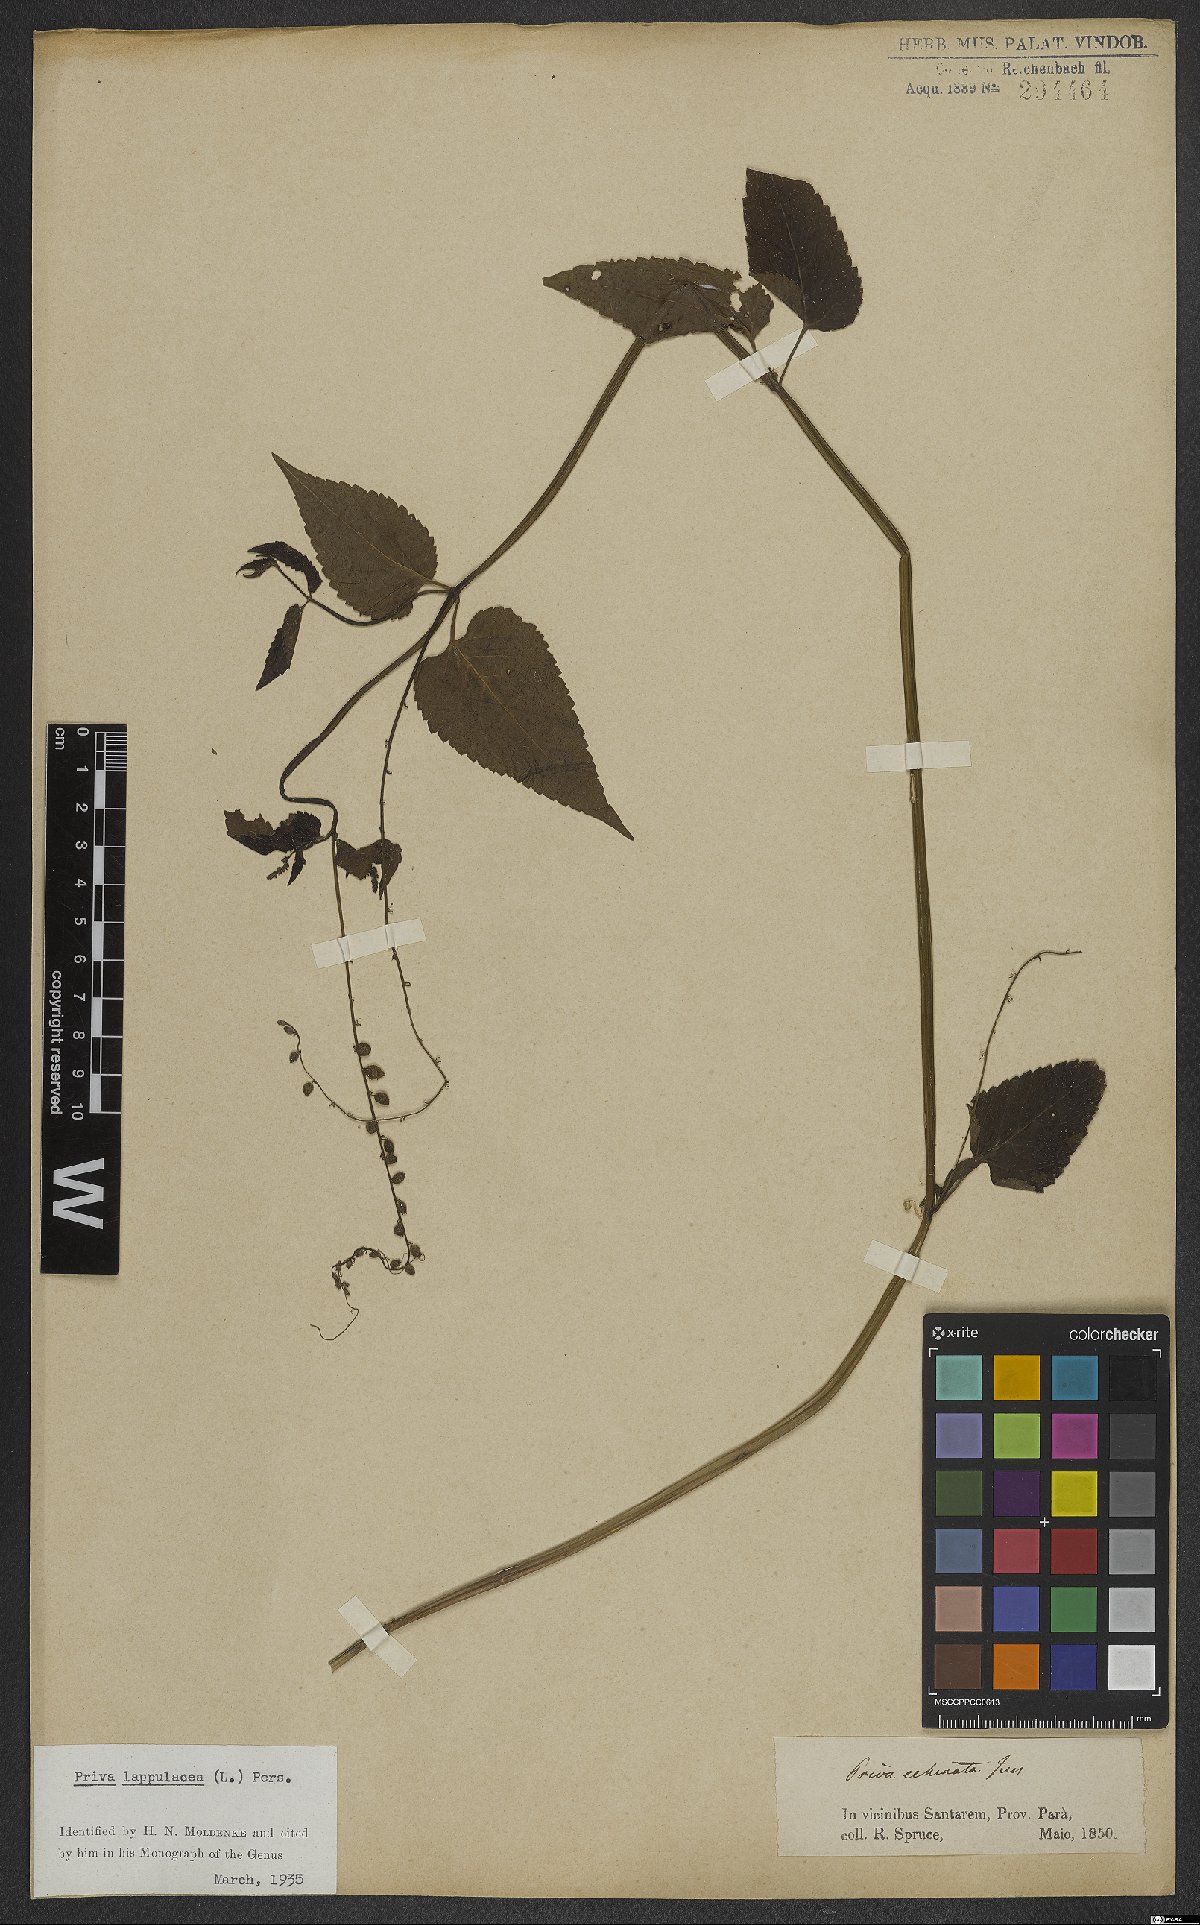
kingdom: Plantae
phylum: Tracheophyta
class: Magnoliopsida
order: Lamiales
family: Verbenaceae
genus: Priva
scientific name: Priva lappulacea
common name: Fasten-'pon-coat
